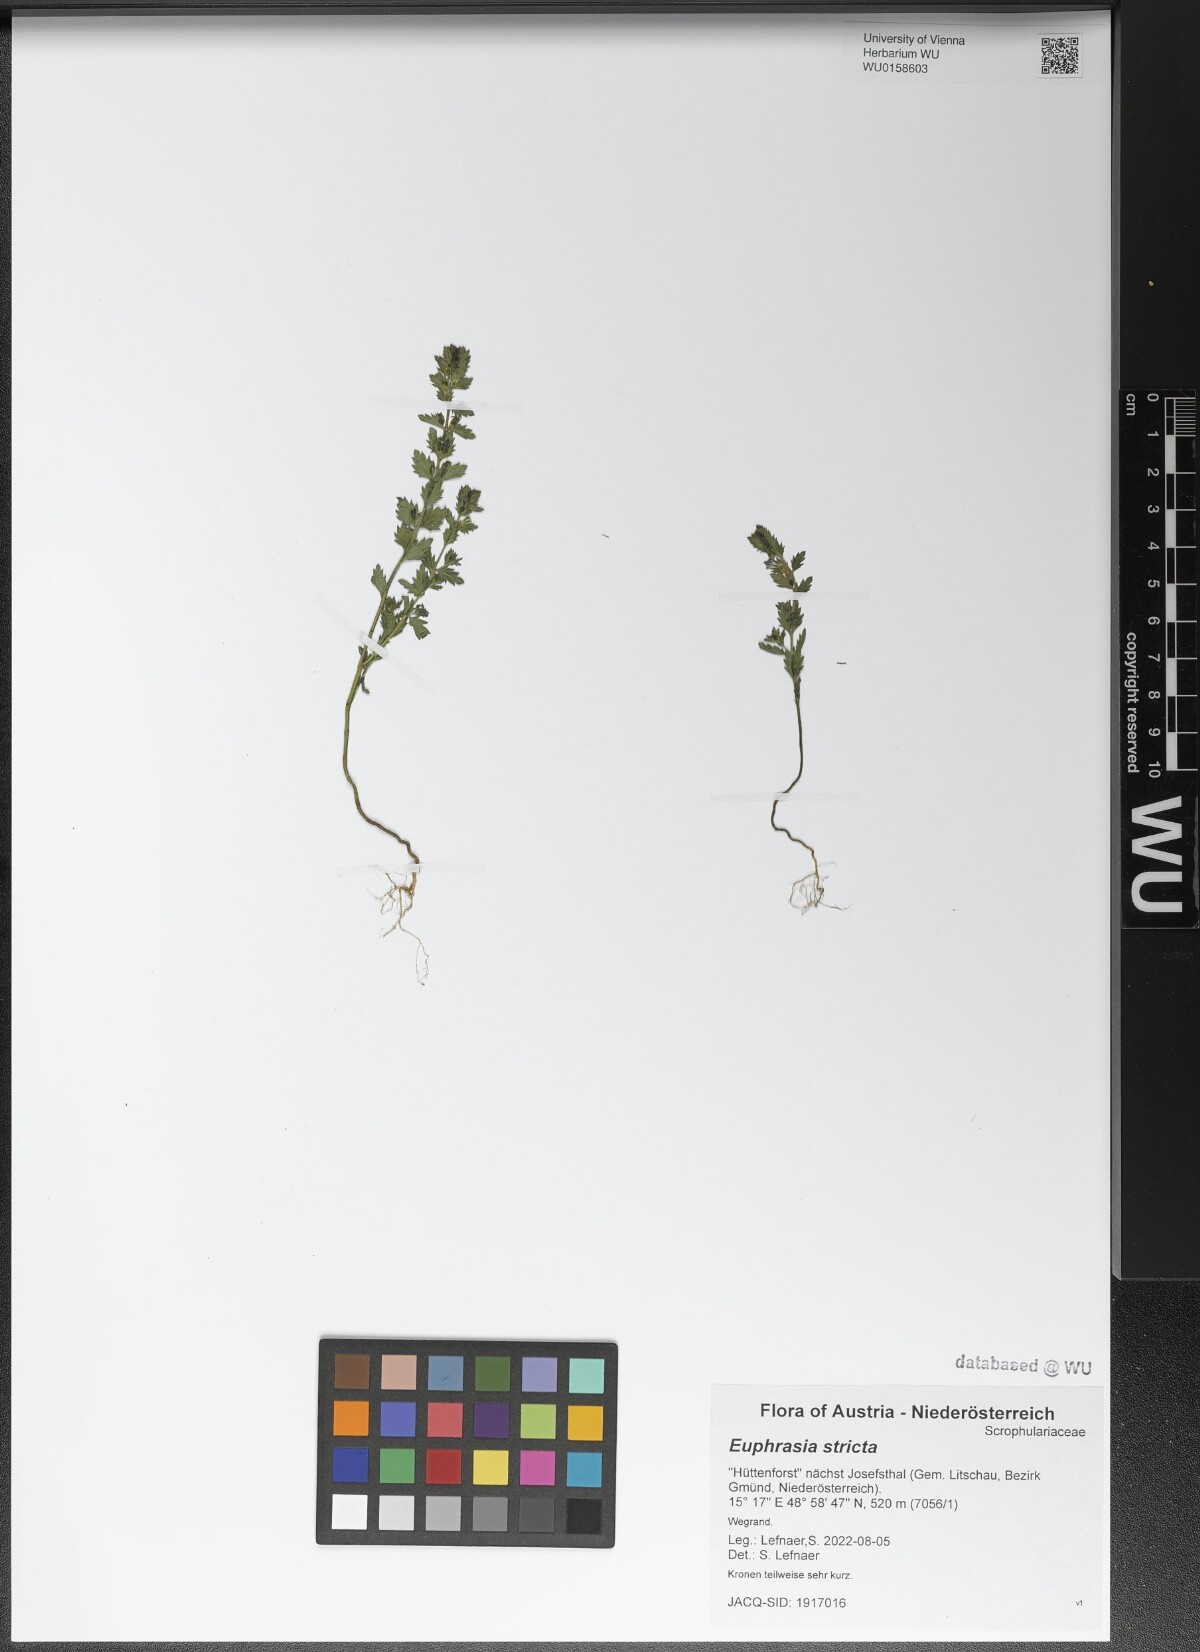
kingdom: Plantae
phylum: Tracheophyta
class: Magnoliopsida
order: Lamiales
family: Orobanchaceae
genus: Euphrasia
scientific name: Euphrasia stricta
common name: Drug eyebright
